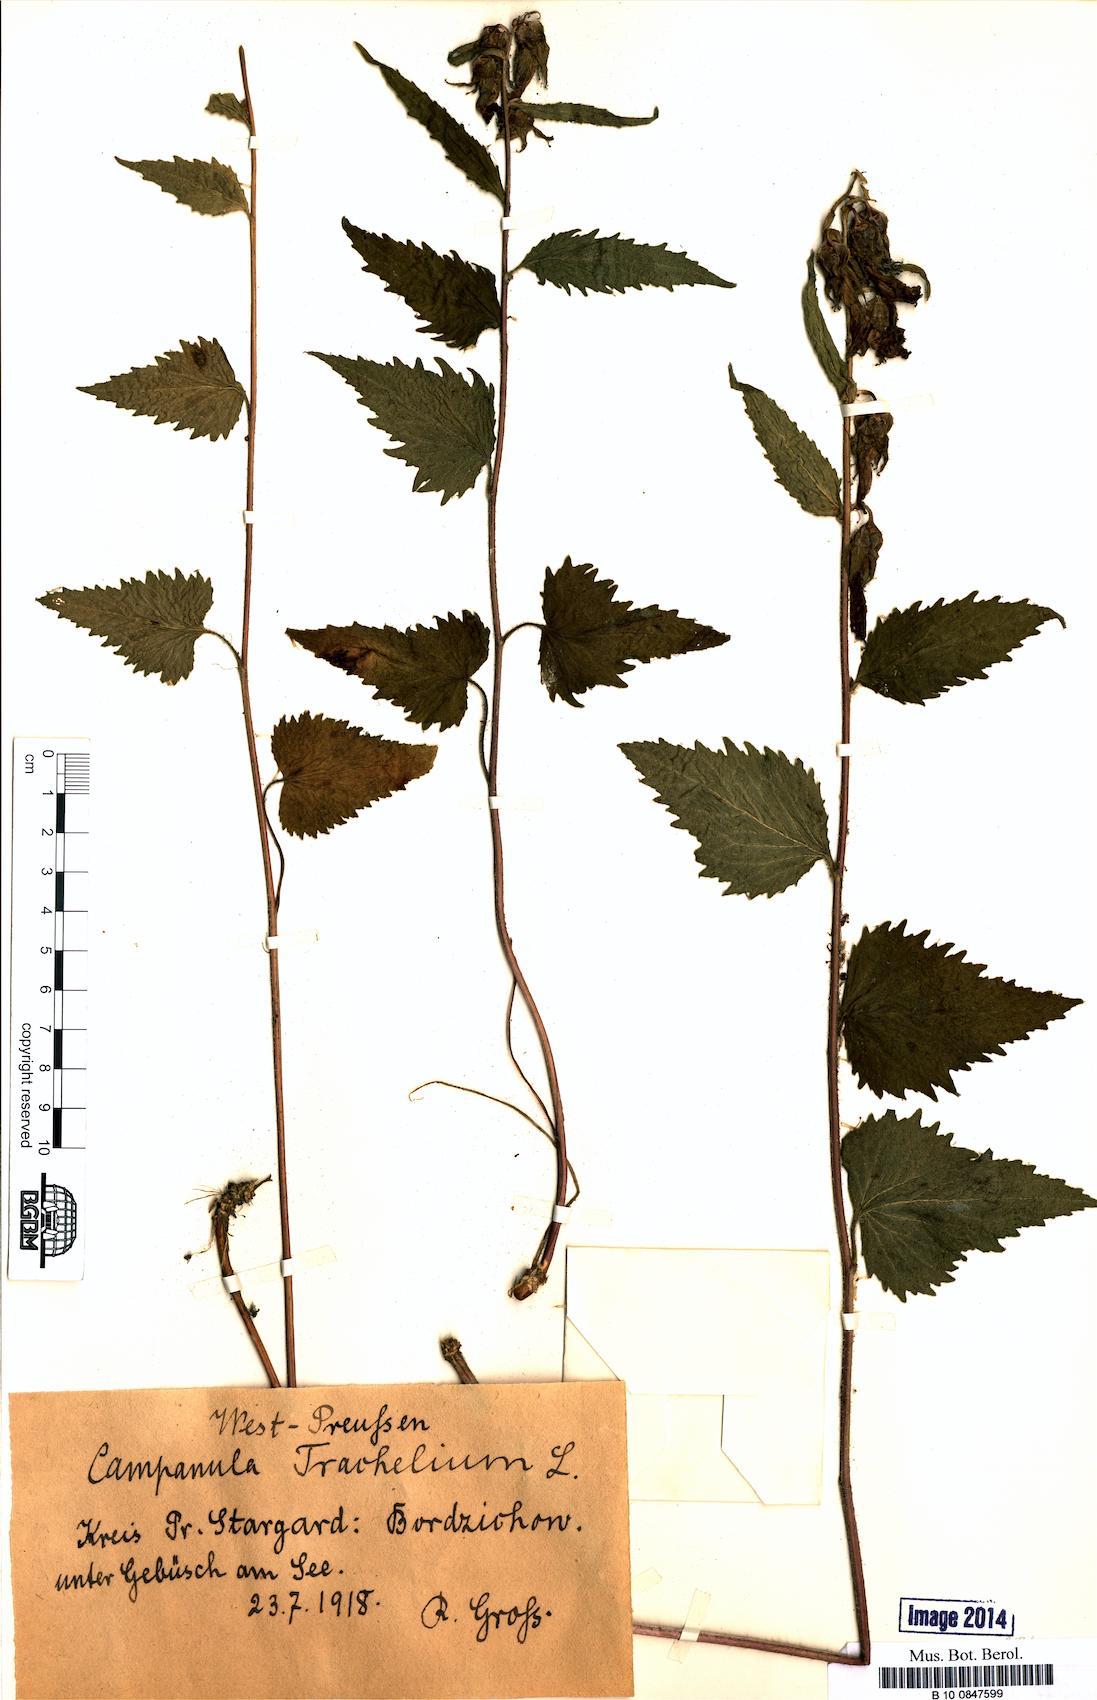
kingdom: Plantae
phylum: Tracheophyta
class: Magnoliopsida
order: Asterales
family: Campanulaceae
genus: Campanula
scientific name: Campanula trachelium
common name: Nettle-leaved bellflower
